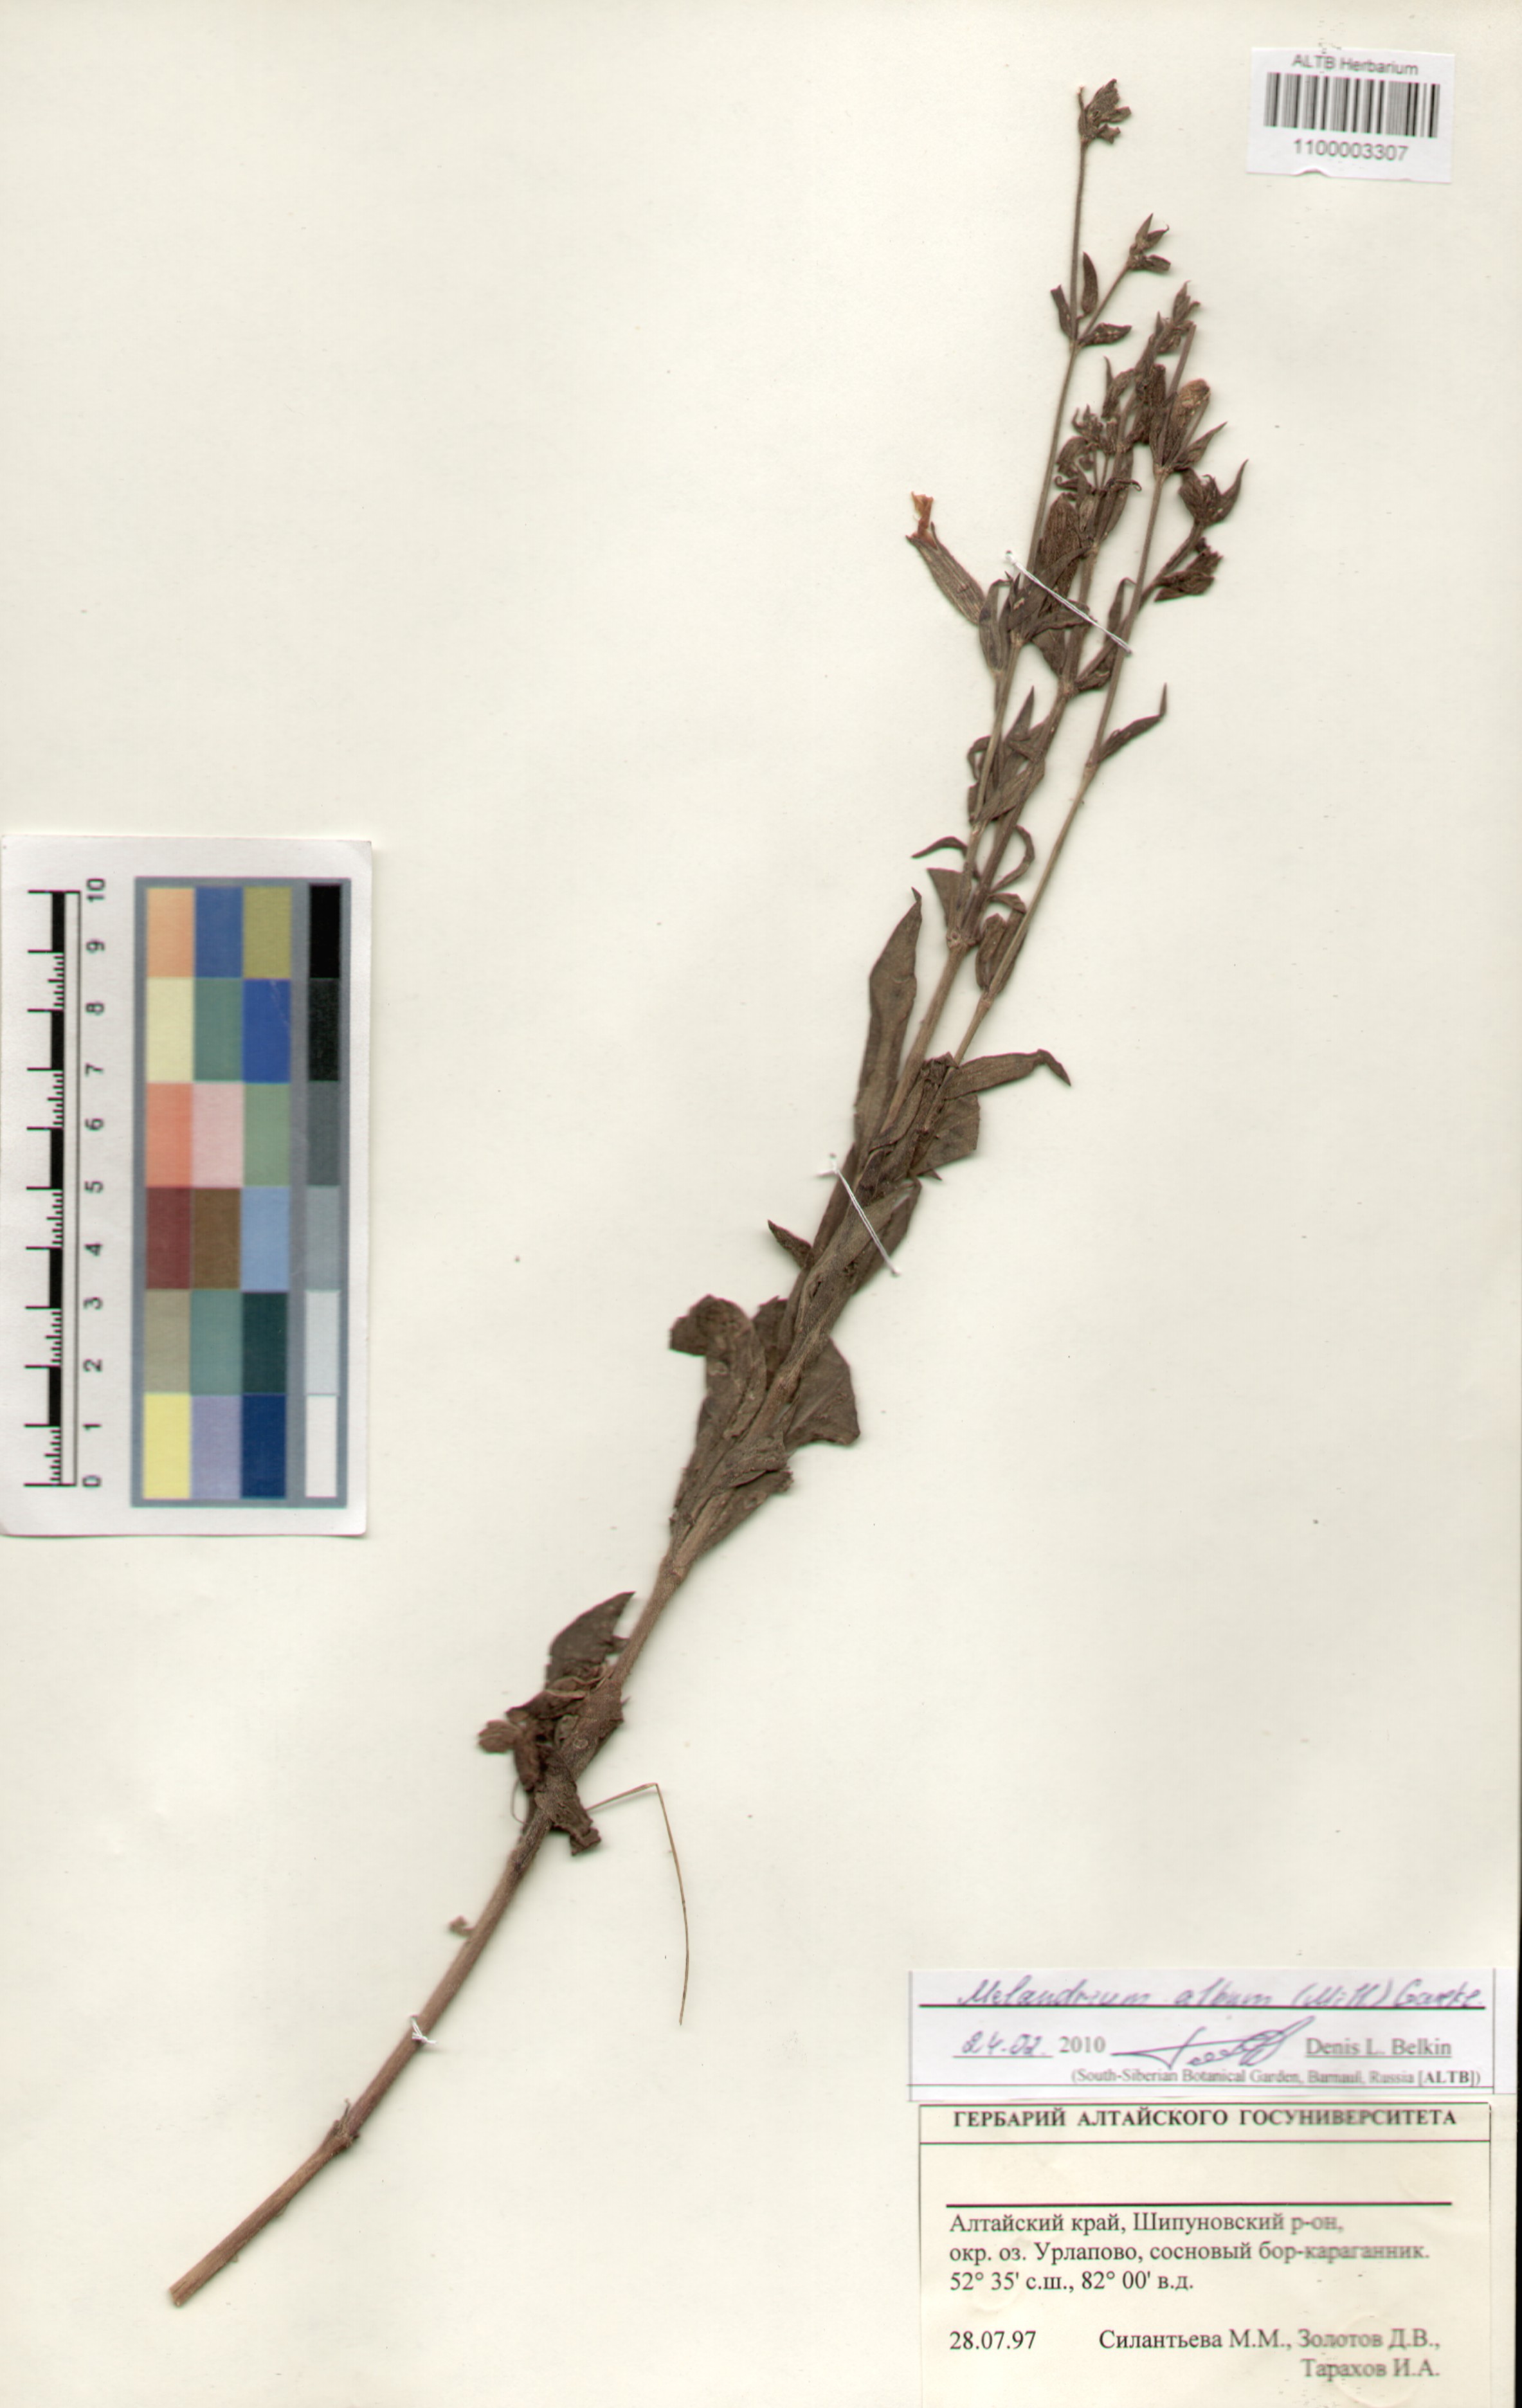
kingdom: Plantae
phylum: Tracheophyta
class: Magnoliopsida
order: Caryophyllales
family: Caryophyllaceae
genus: Silene
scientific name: Silene latifolia
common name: White campion
